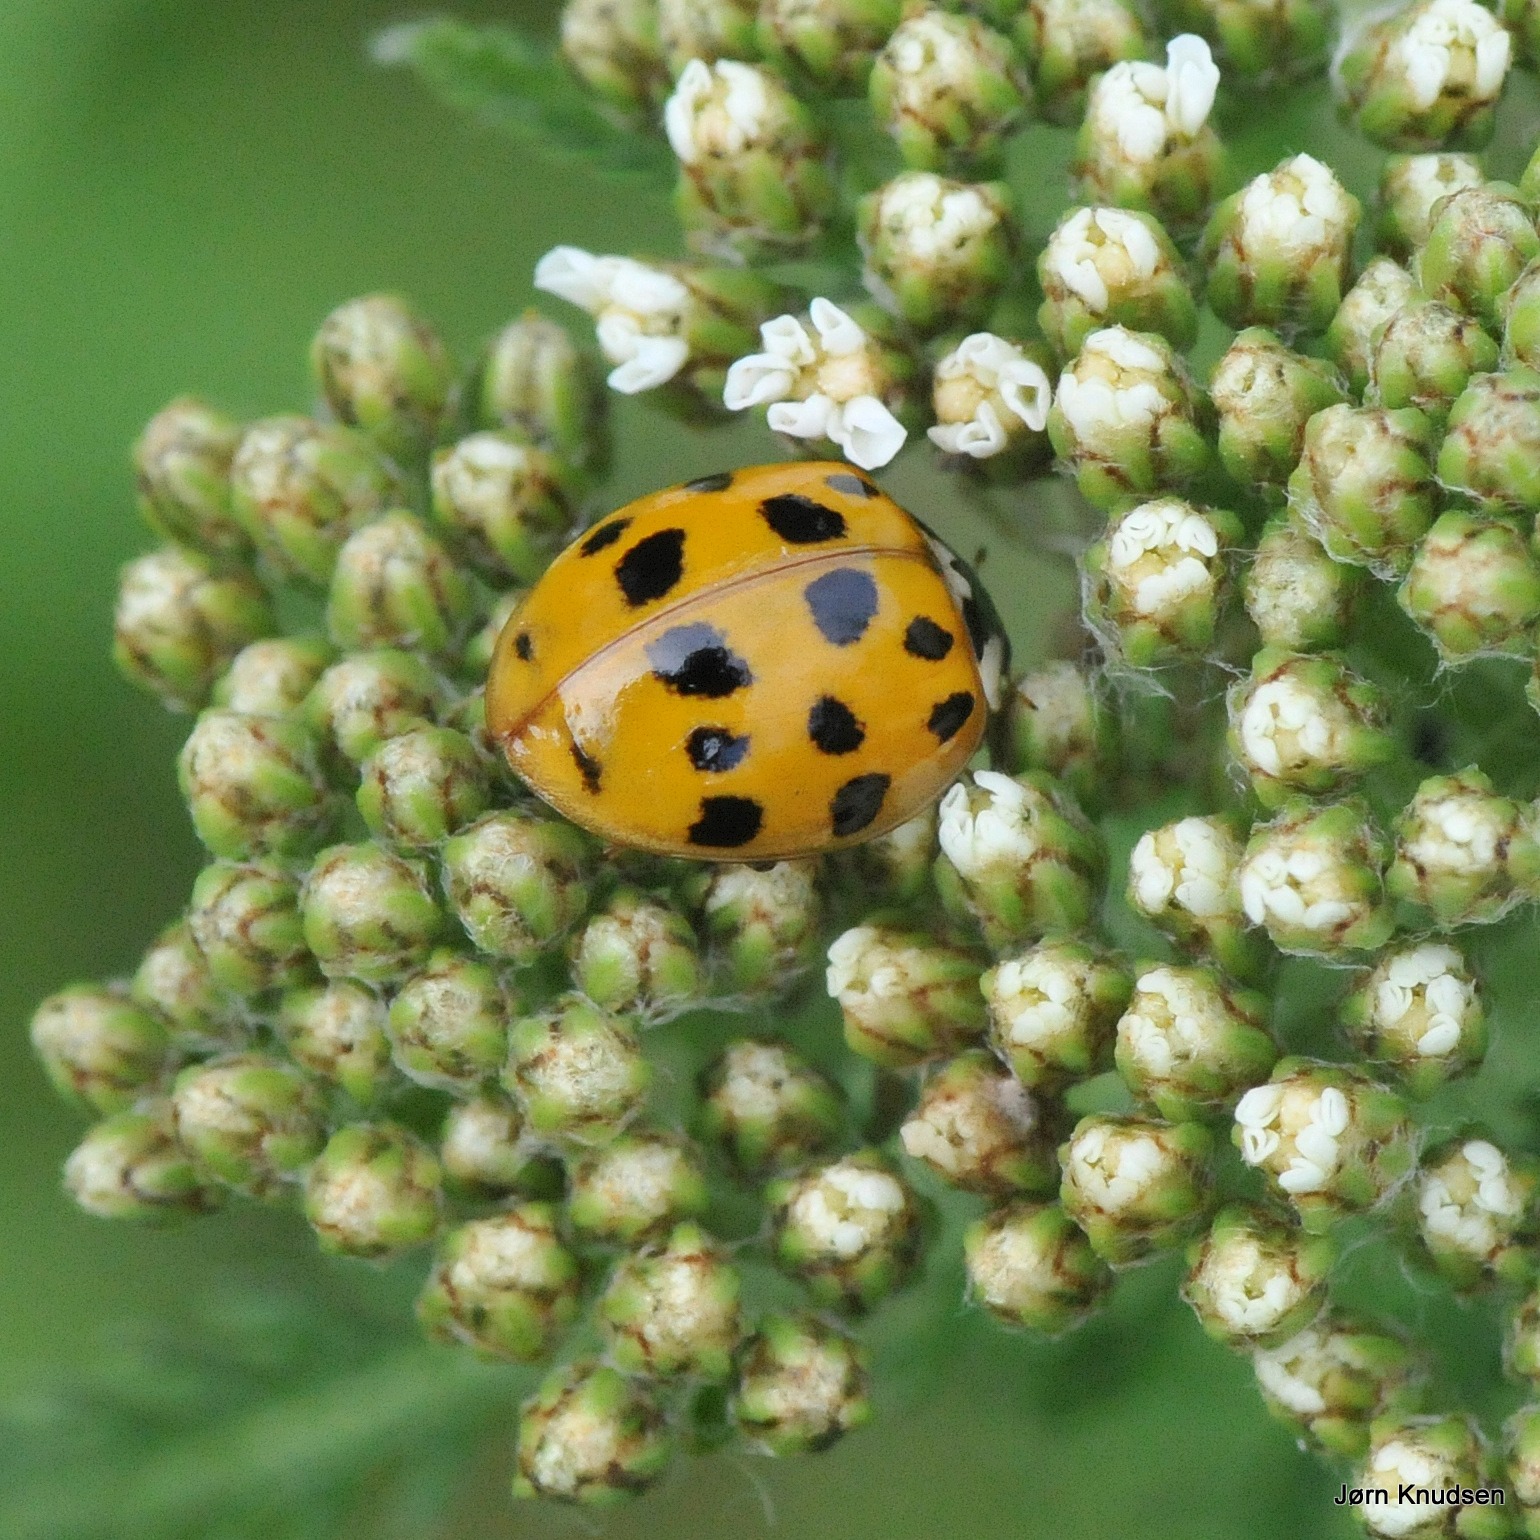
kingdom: Animalia
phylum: Arthropoda
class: Insecta
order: Coleoptera
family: Coccinellidae
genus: Harmonia
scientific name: Harmonia axyridis
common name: Harlekinmariehøne
